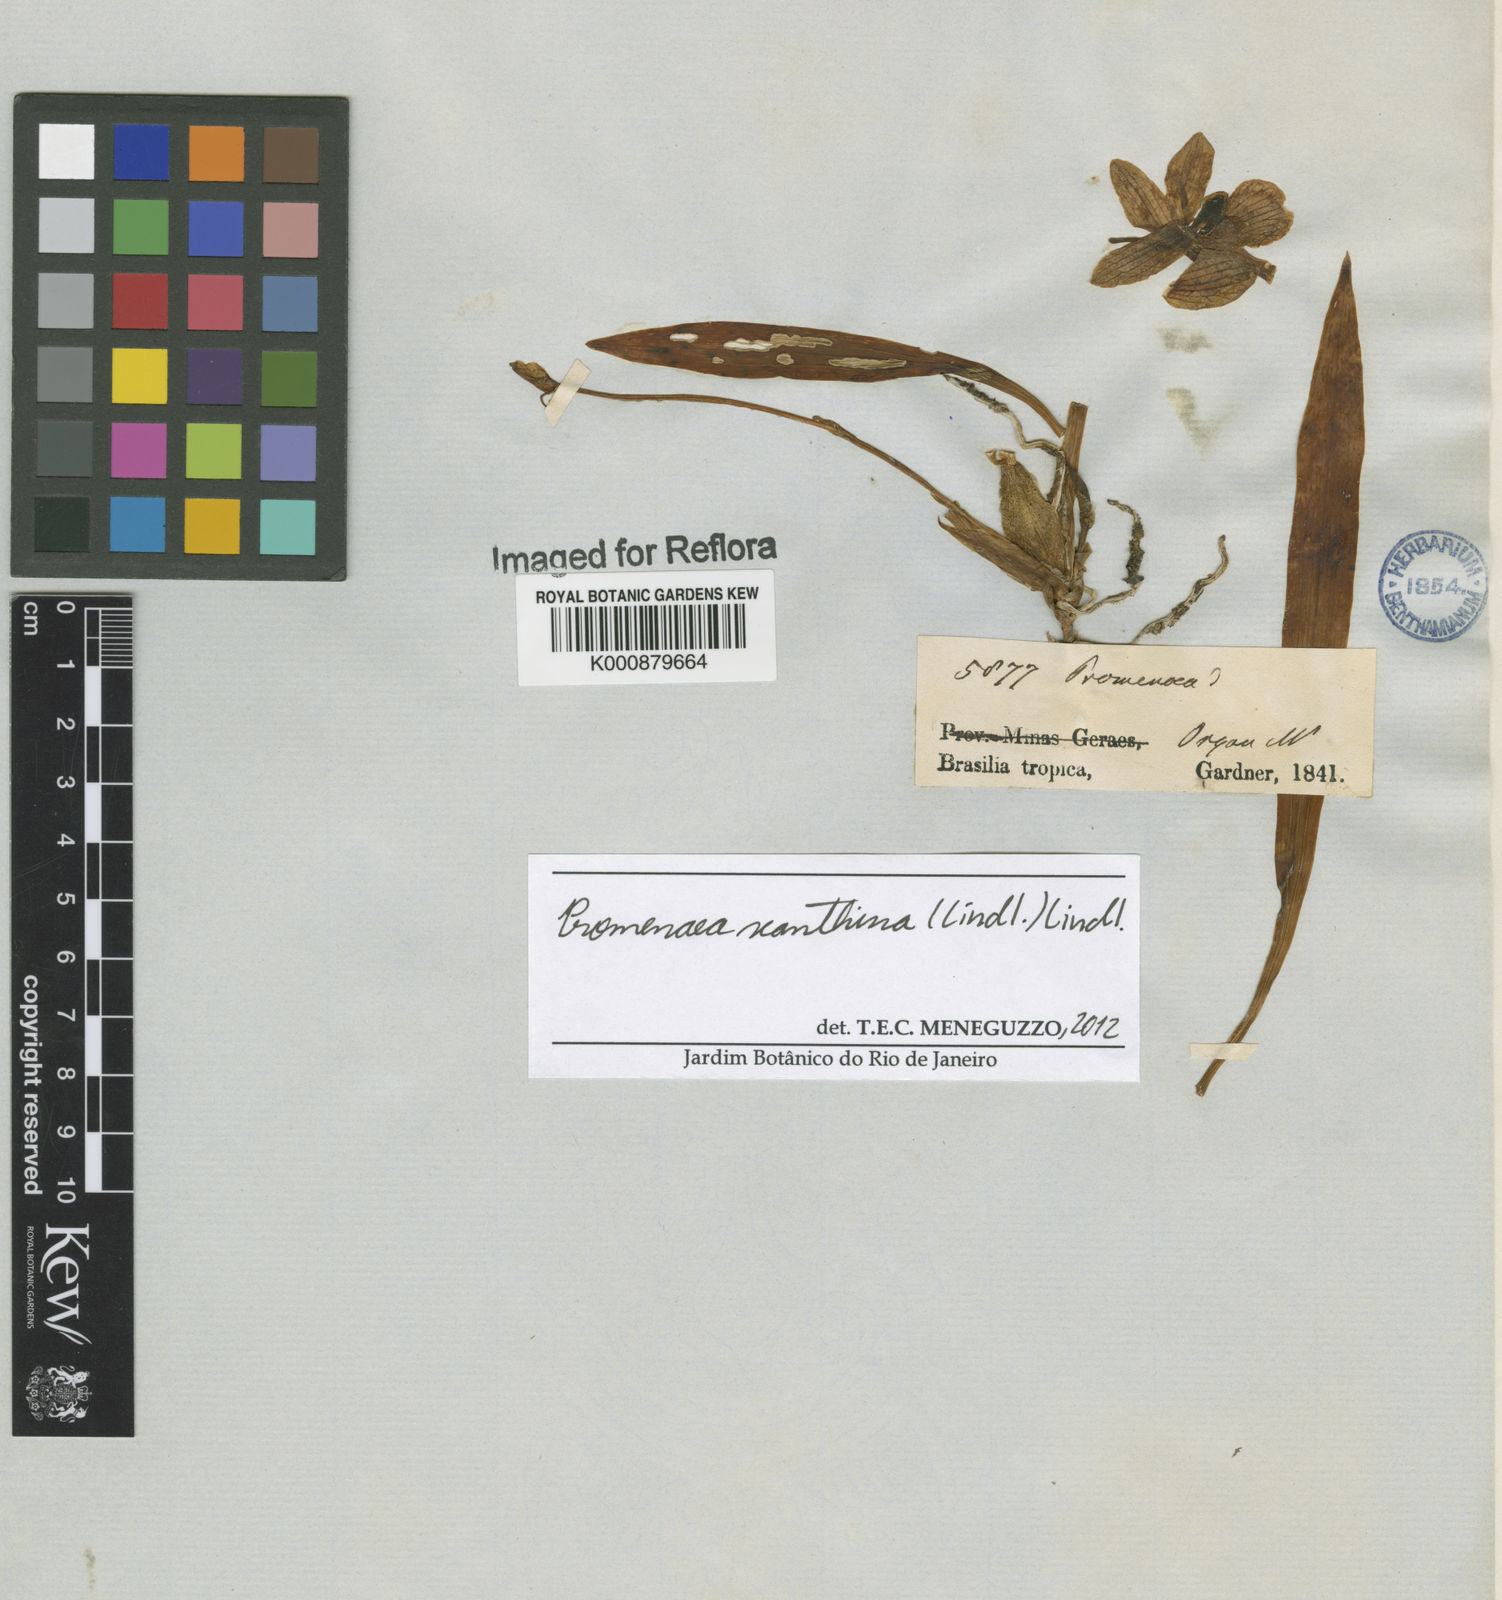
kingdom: Plantae
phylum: Tracheophyta
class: Liliopsida
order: Asparagales
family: Orchidaceae
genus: Promenaea
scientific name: Promenaea xanthina
